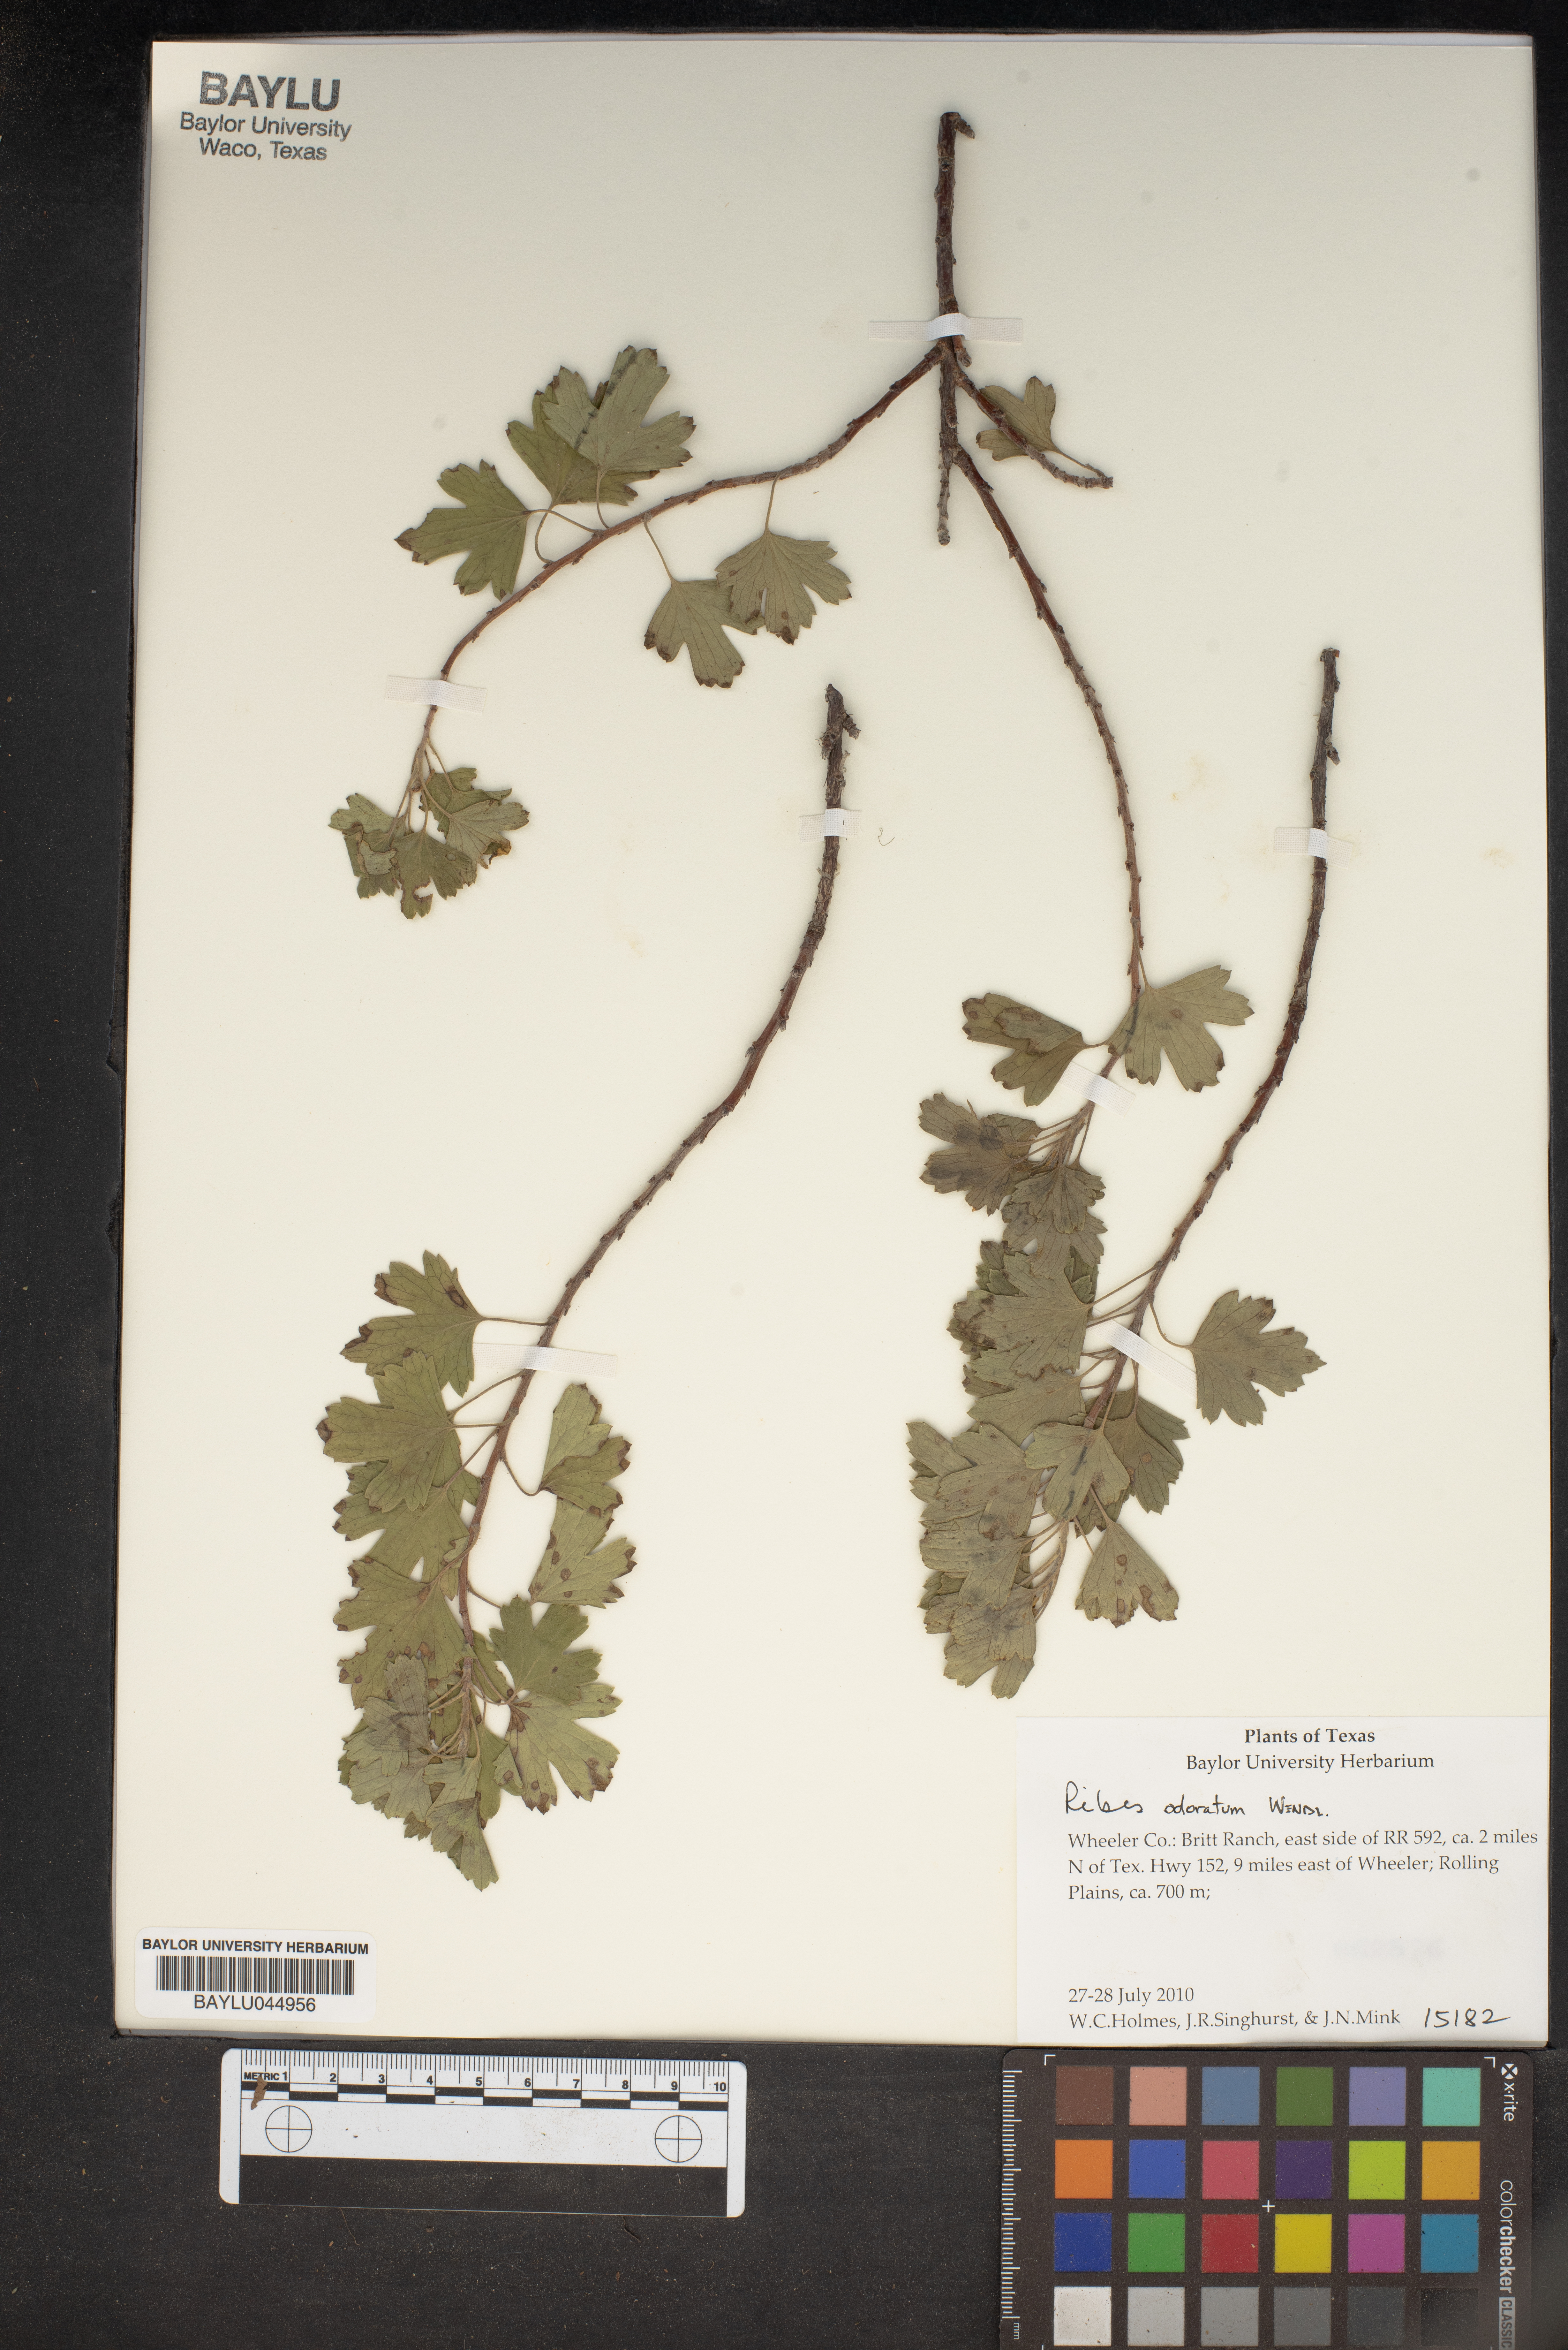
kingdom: Plantae
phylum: Tracheophyta
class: Magnoliopsida
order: Saxifragales
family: Grossulariaceae
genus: Ribes
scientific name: Ribes aureum
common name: Golden currant
